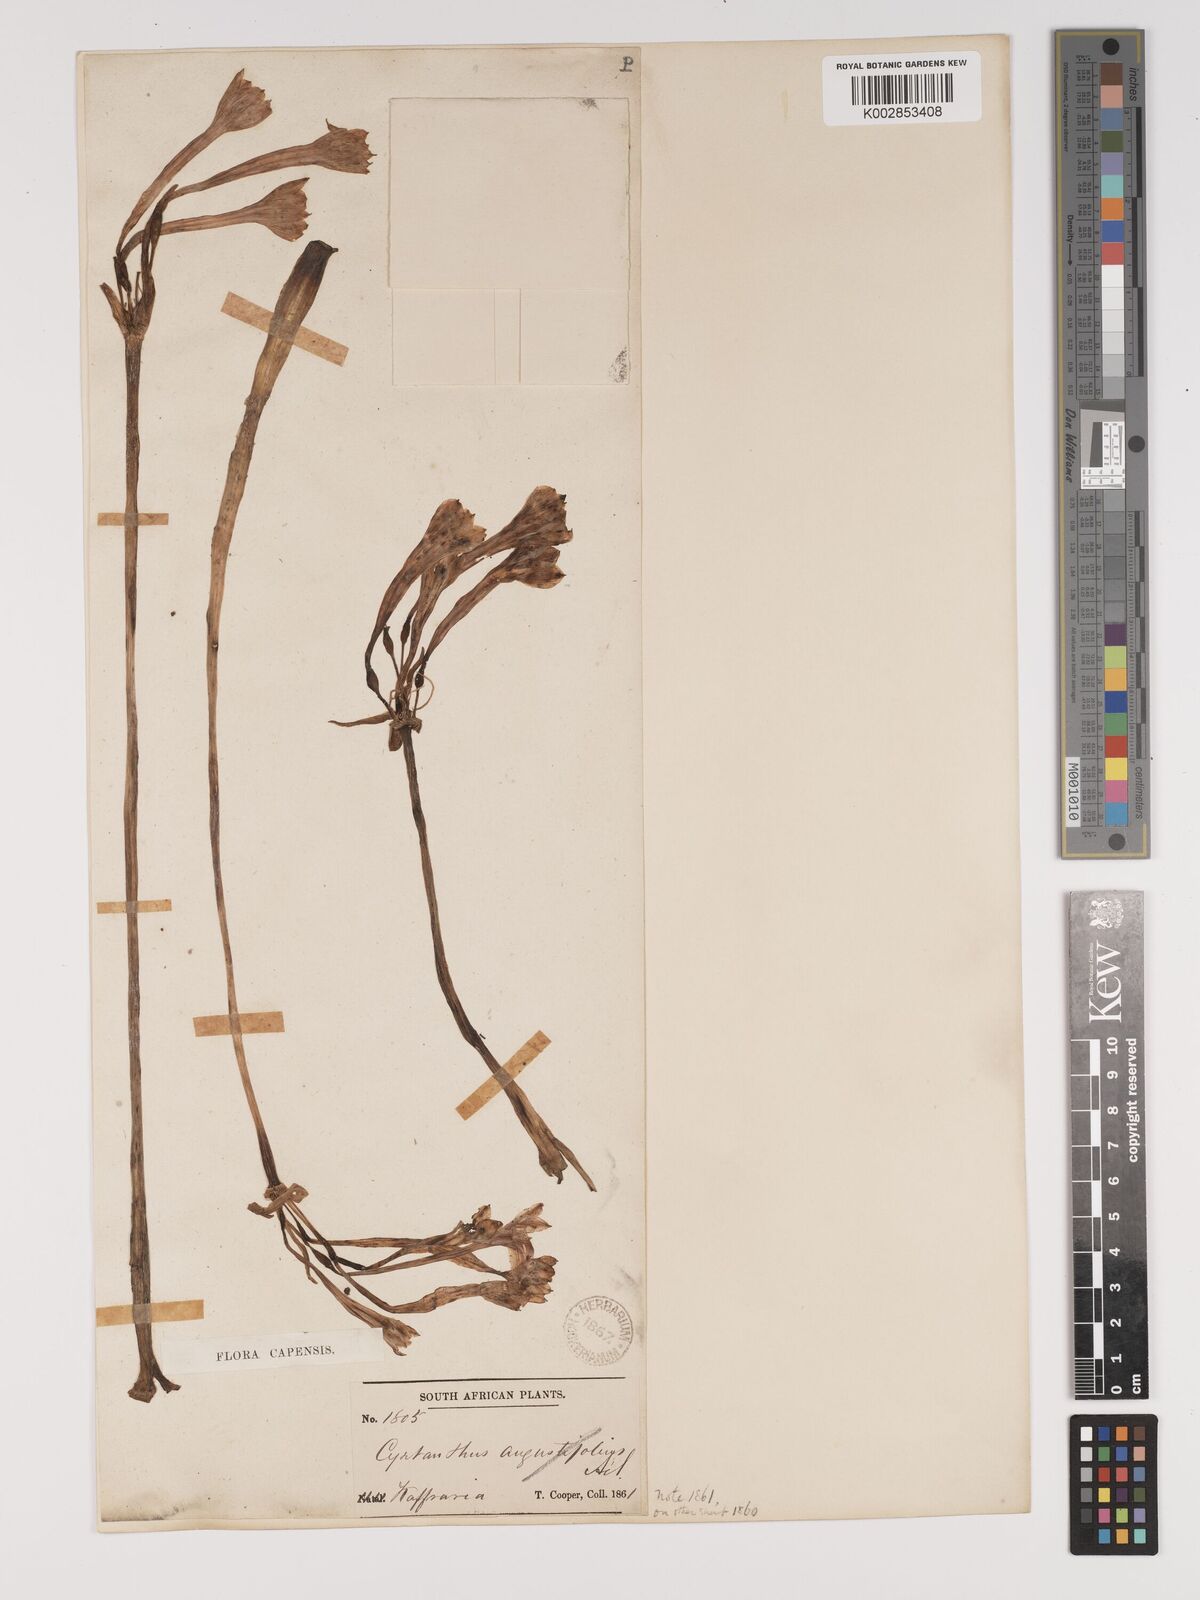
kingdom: Plantae
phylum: Tracheophyta
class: Liliopsida
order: Asparagales
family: Amaryllidaceae
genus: Cyrtanthus
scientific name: Cyrtanthus contractus
